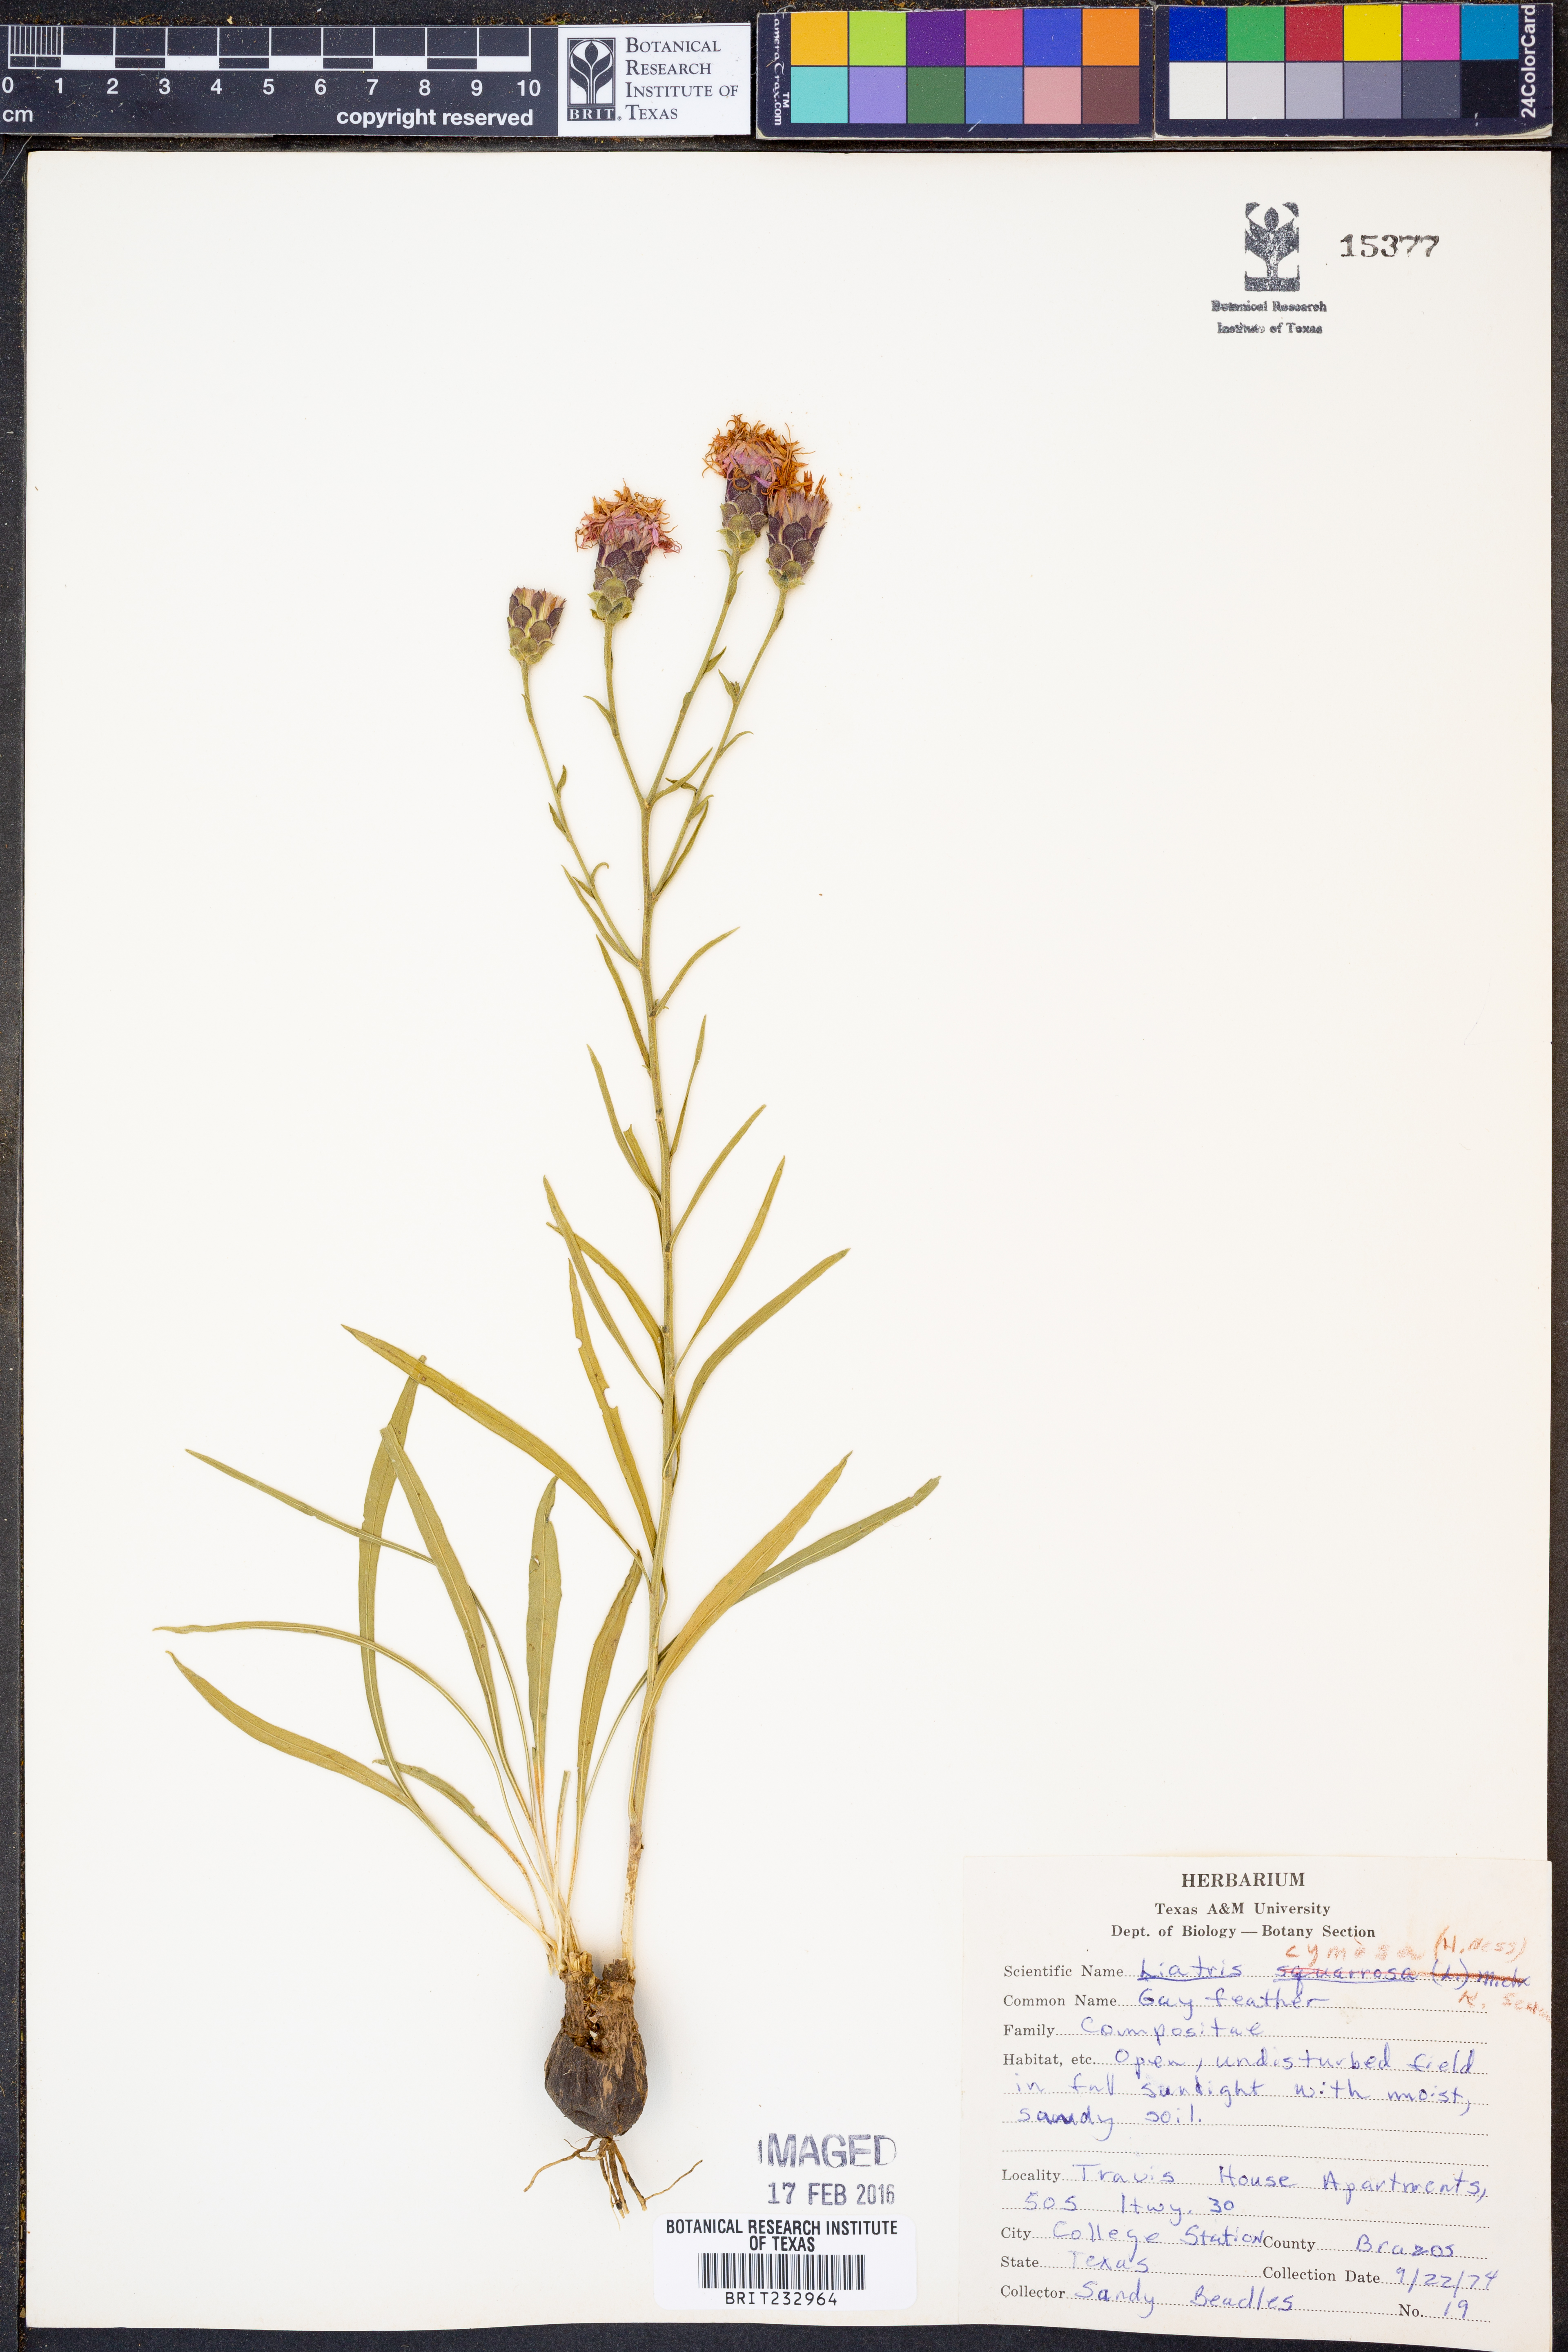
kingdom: Plantae
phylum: Tracheophyta
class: Magnoliopsida
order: Asterales
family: Asteraceae
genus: Liatris
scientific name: Liatris cymosa
